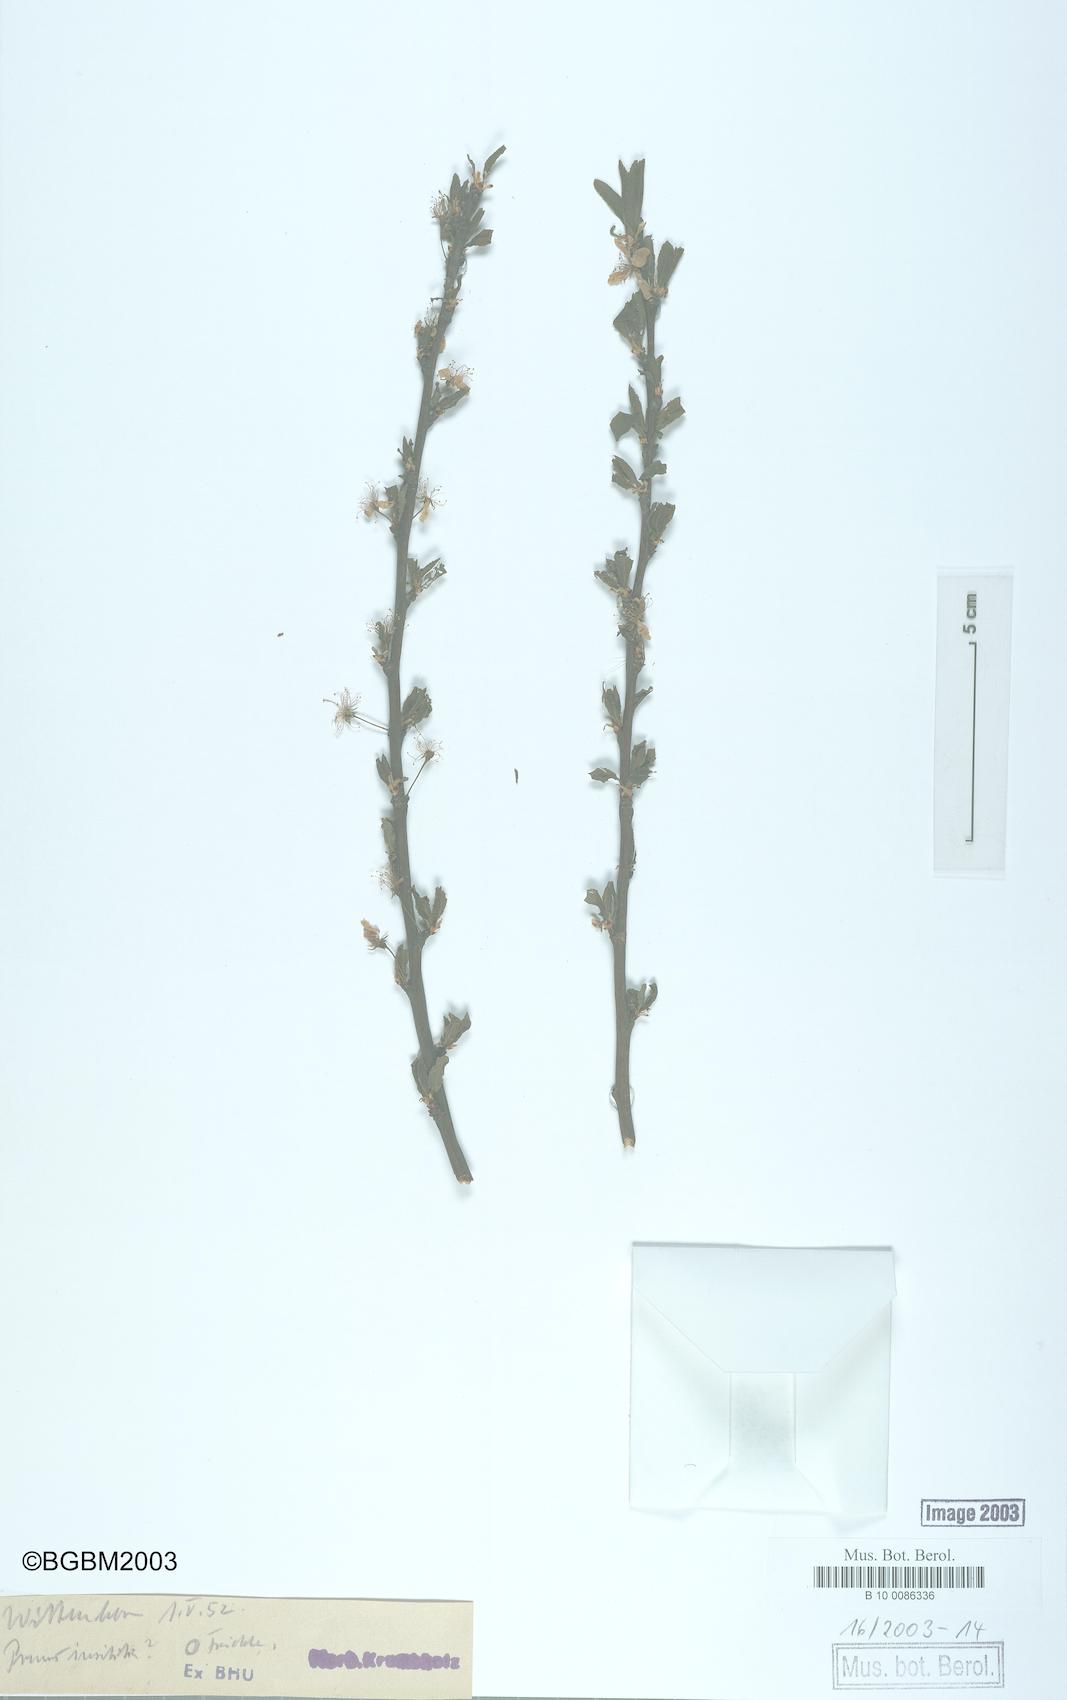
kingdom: Plantae
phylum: Tracheophyta
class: Magnoliopsida
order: Rosales
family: Rosaceae
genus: Prunus
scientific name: Prunus
